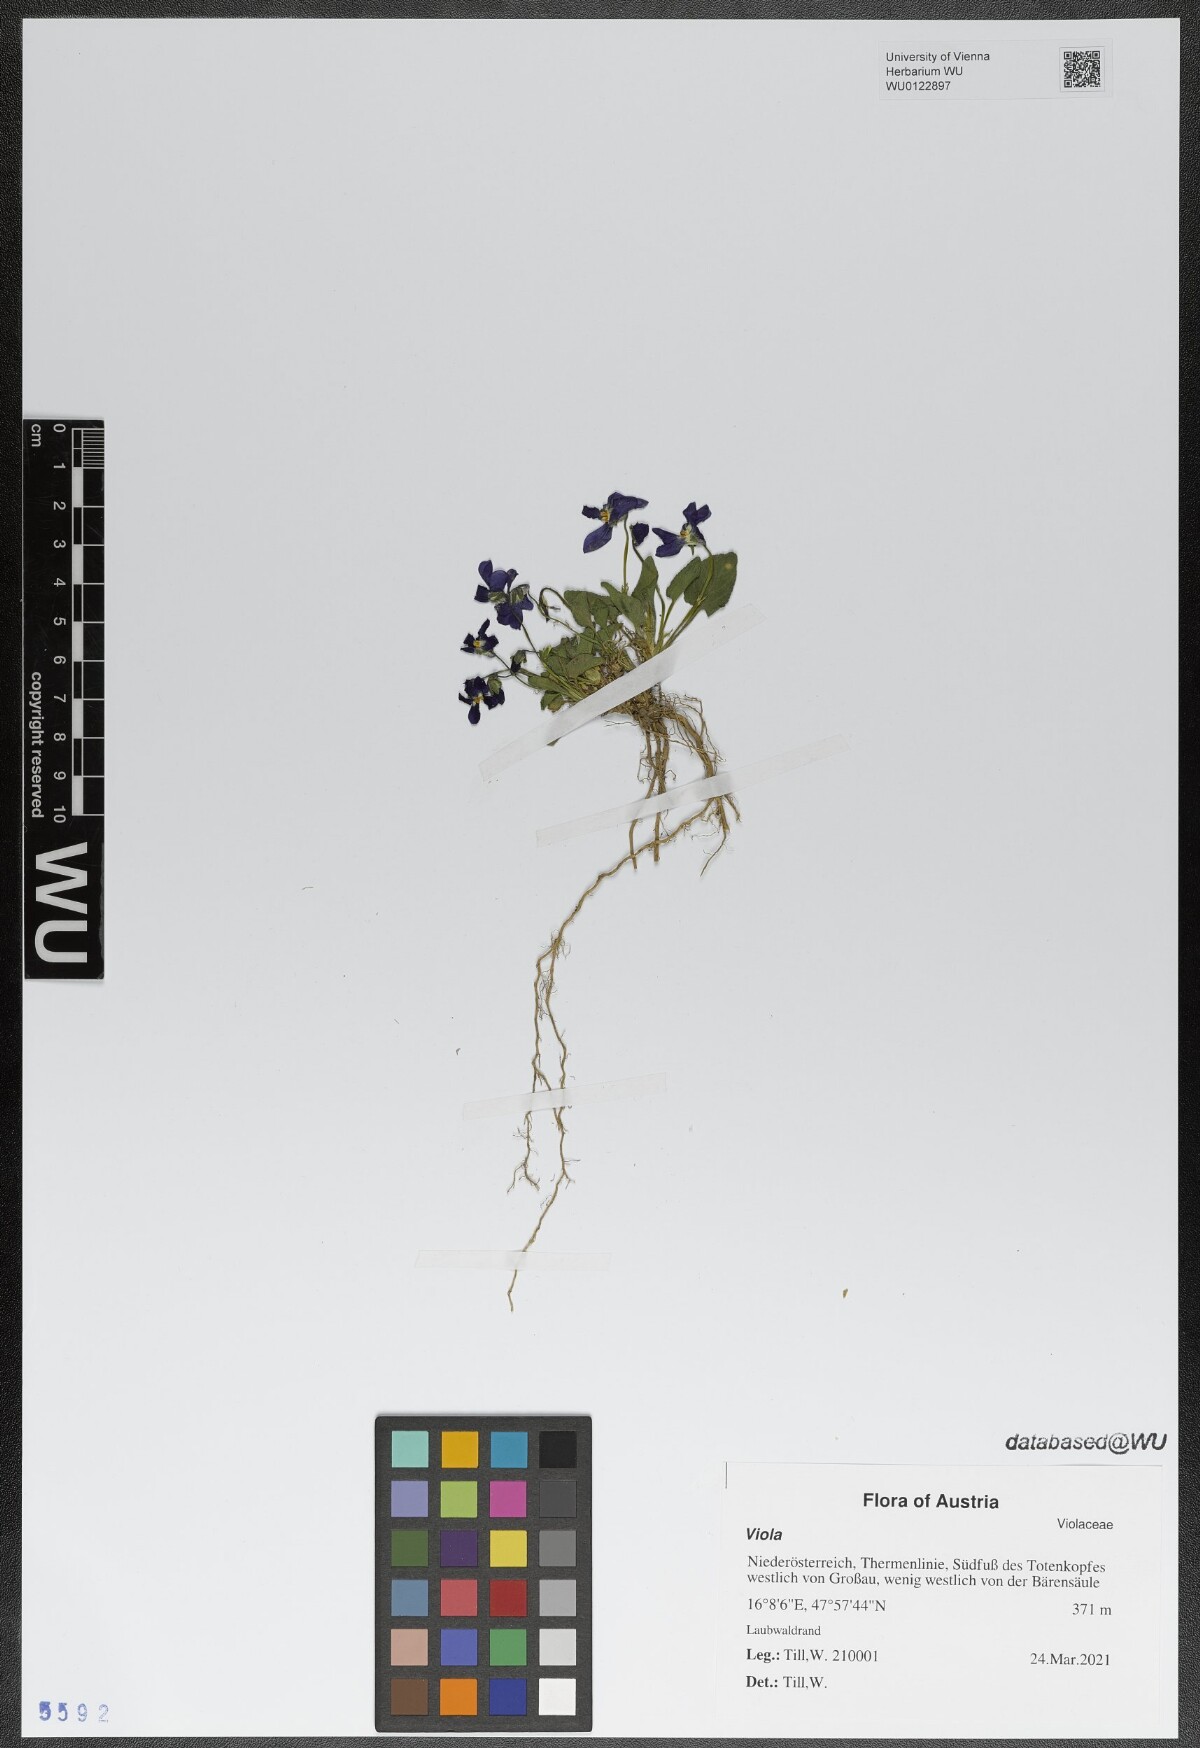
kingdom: Plantae
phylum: Tracheophyta
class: Magnoliopsida
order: Malpighiales
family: Violaceae
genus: Viola
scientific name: Viola hirta
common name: Hairy violet
